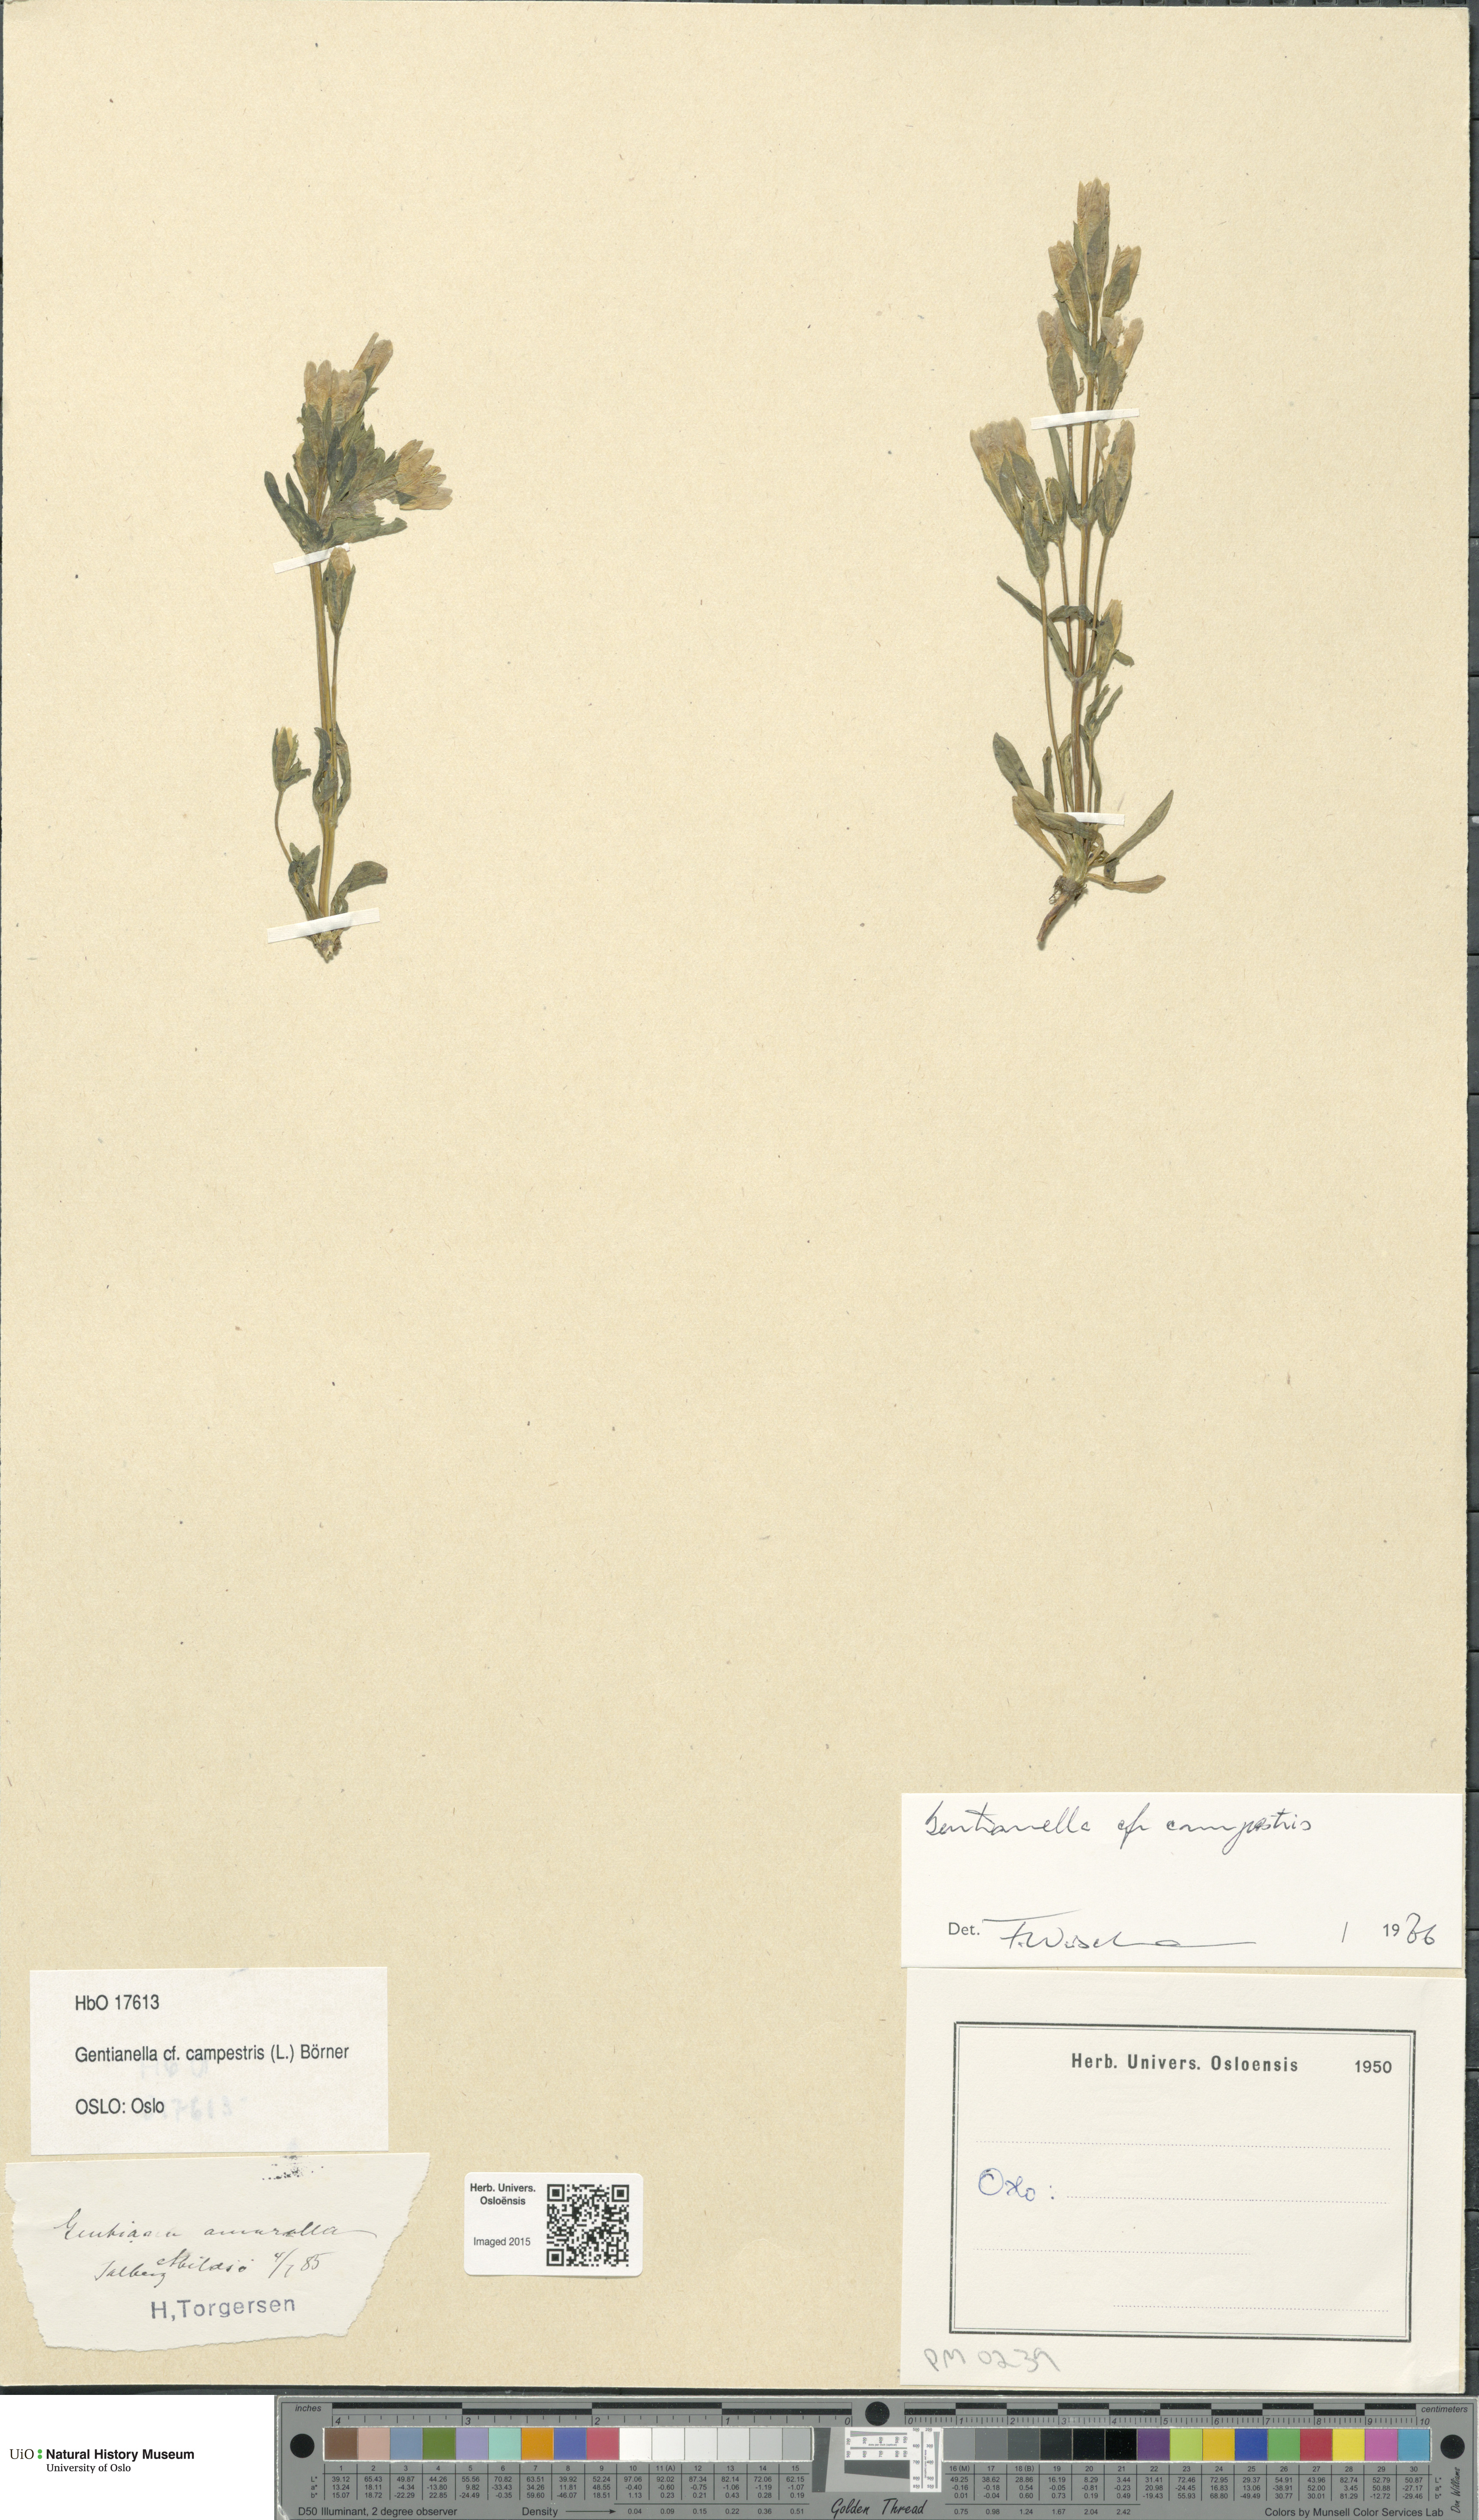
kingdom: Plantae
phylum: Tracheophyta
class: Magnoliopsida
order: Gentianales
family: Gentianaceae
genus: Gentianella
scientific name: Gentianella campestris
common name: Field gentian
